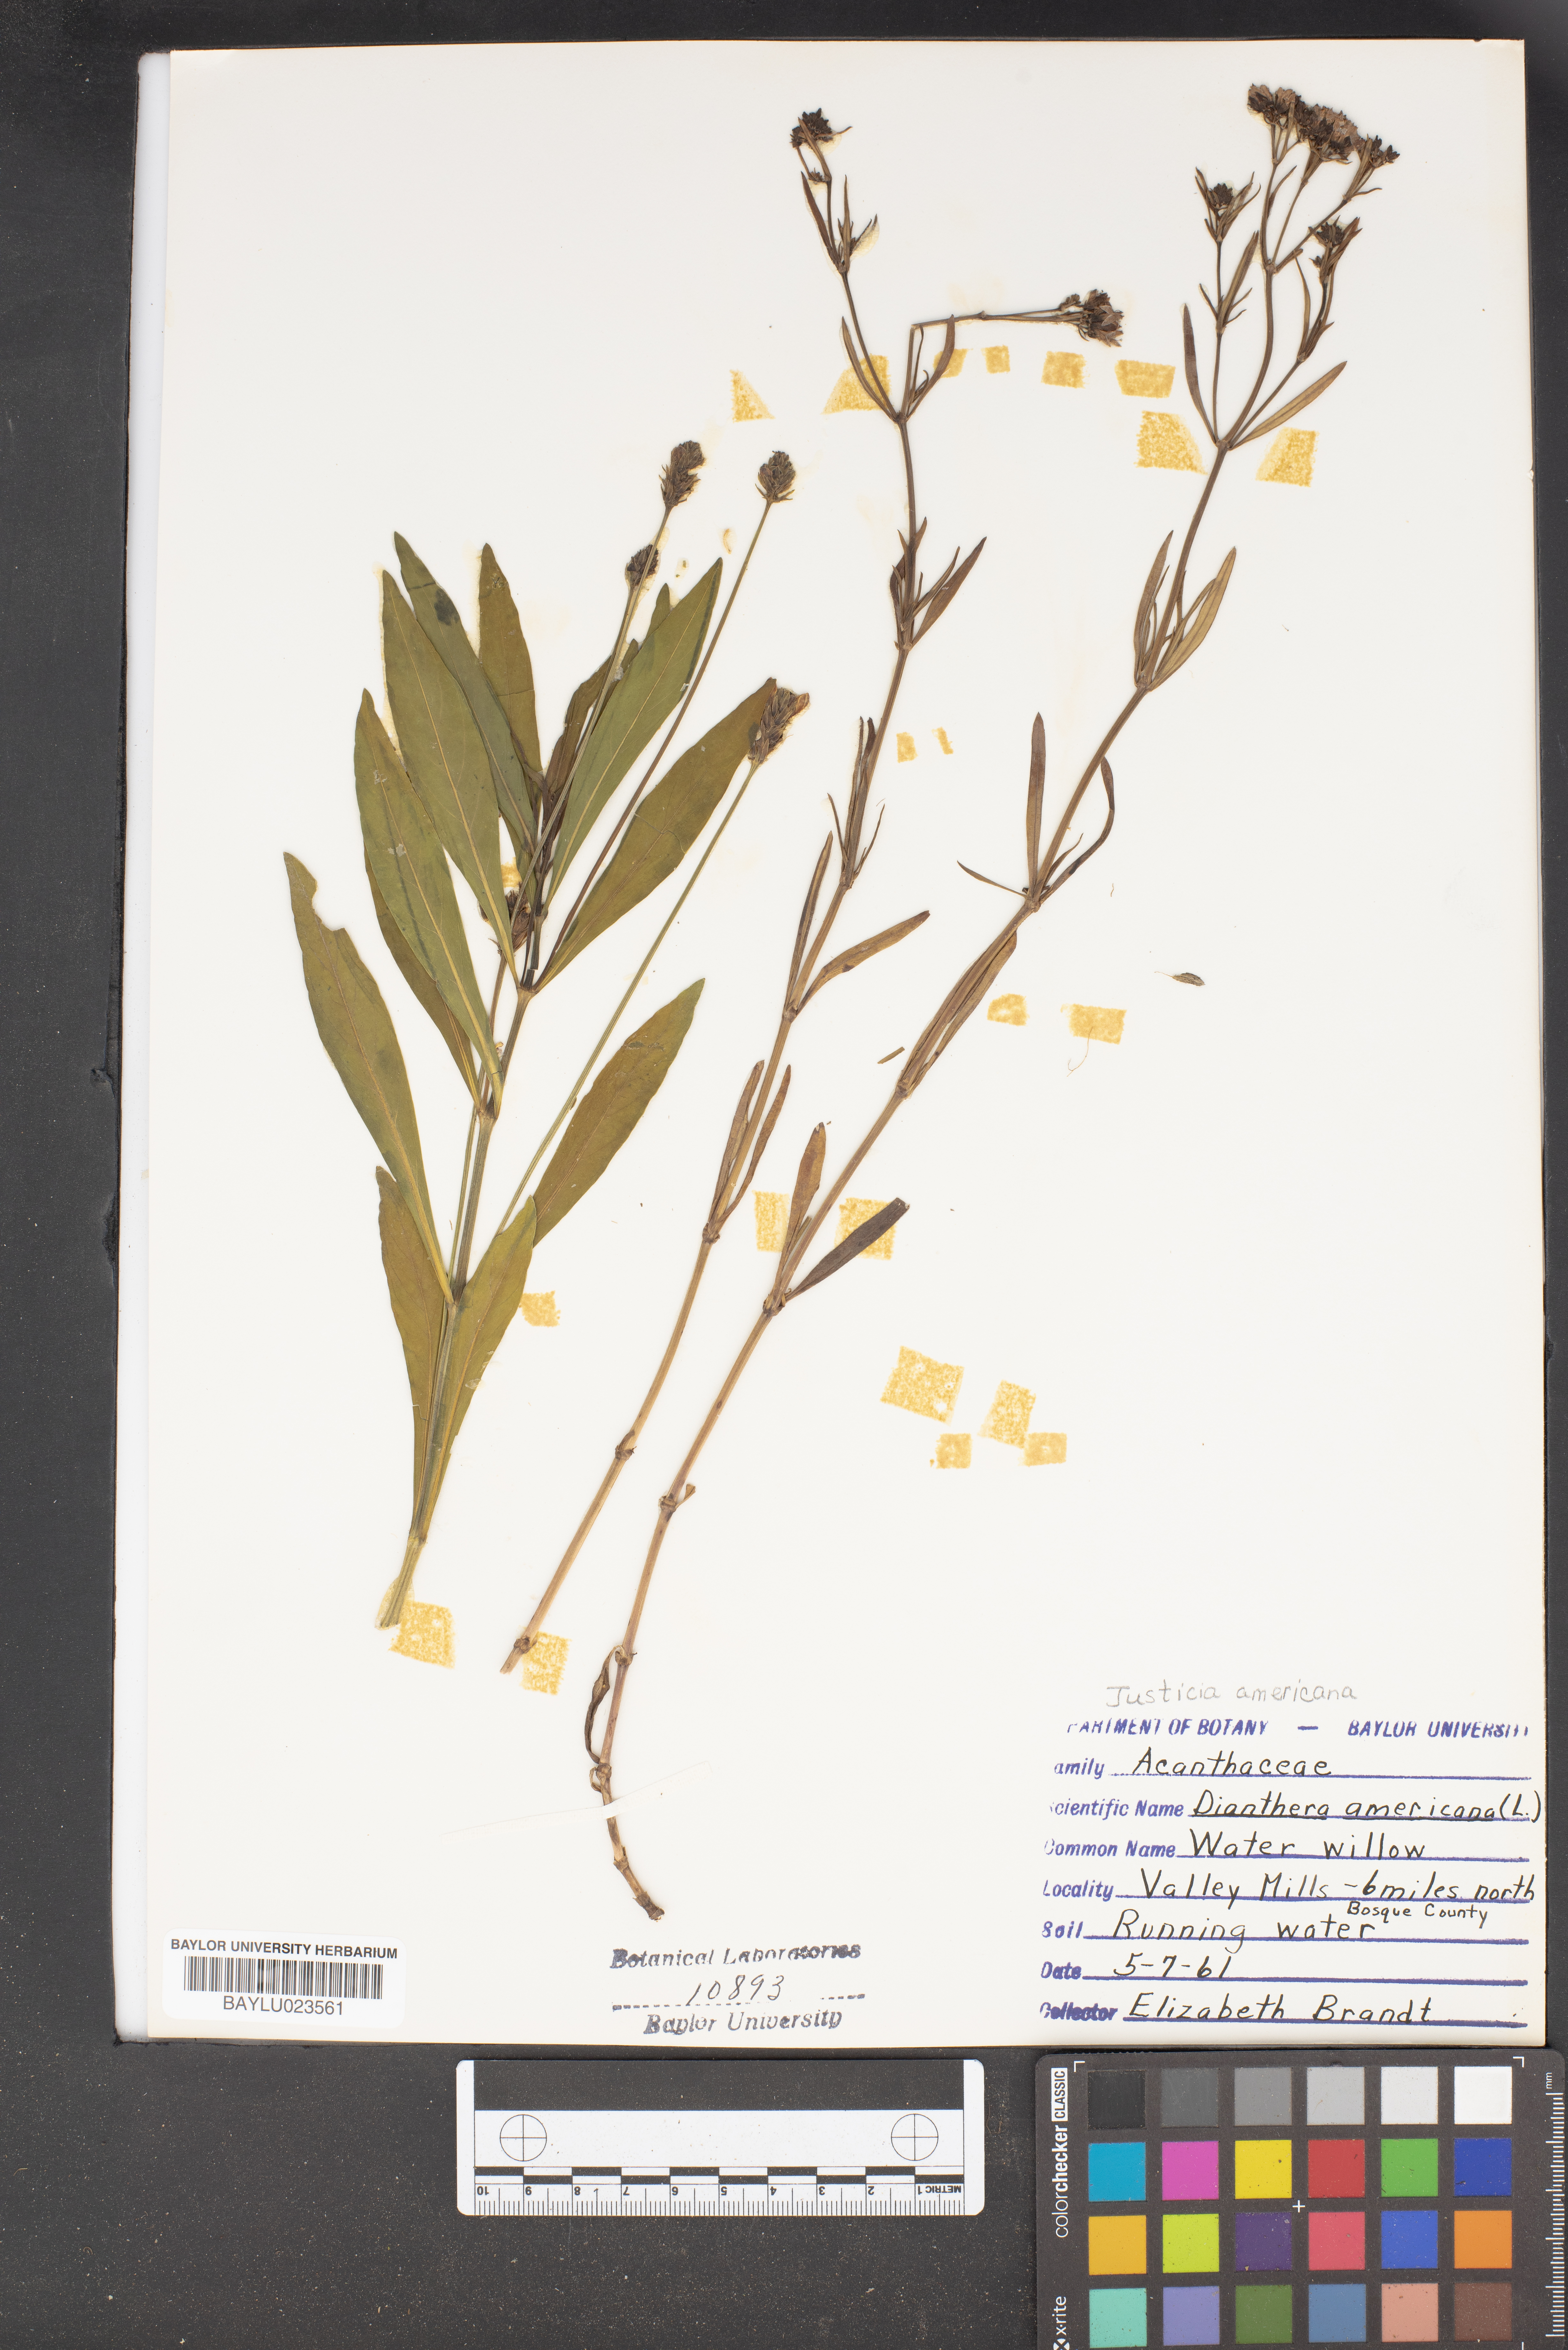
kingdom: Plantae
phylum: Tracheophyta
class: Magnoliopsida
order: Lamiales
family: Acanthaceae
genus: Rostellularia
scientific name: Rostellularia procumbens
